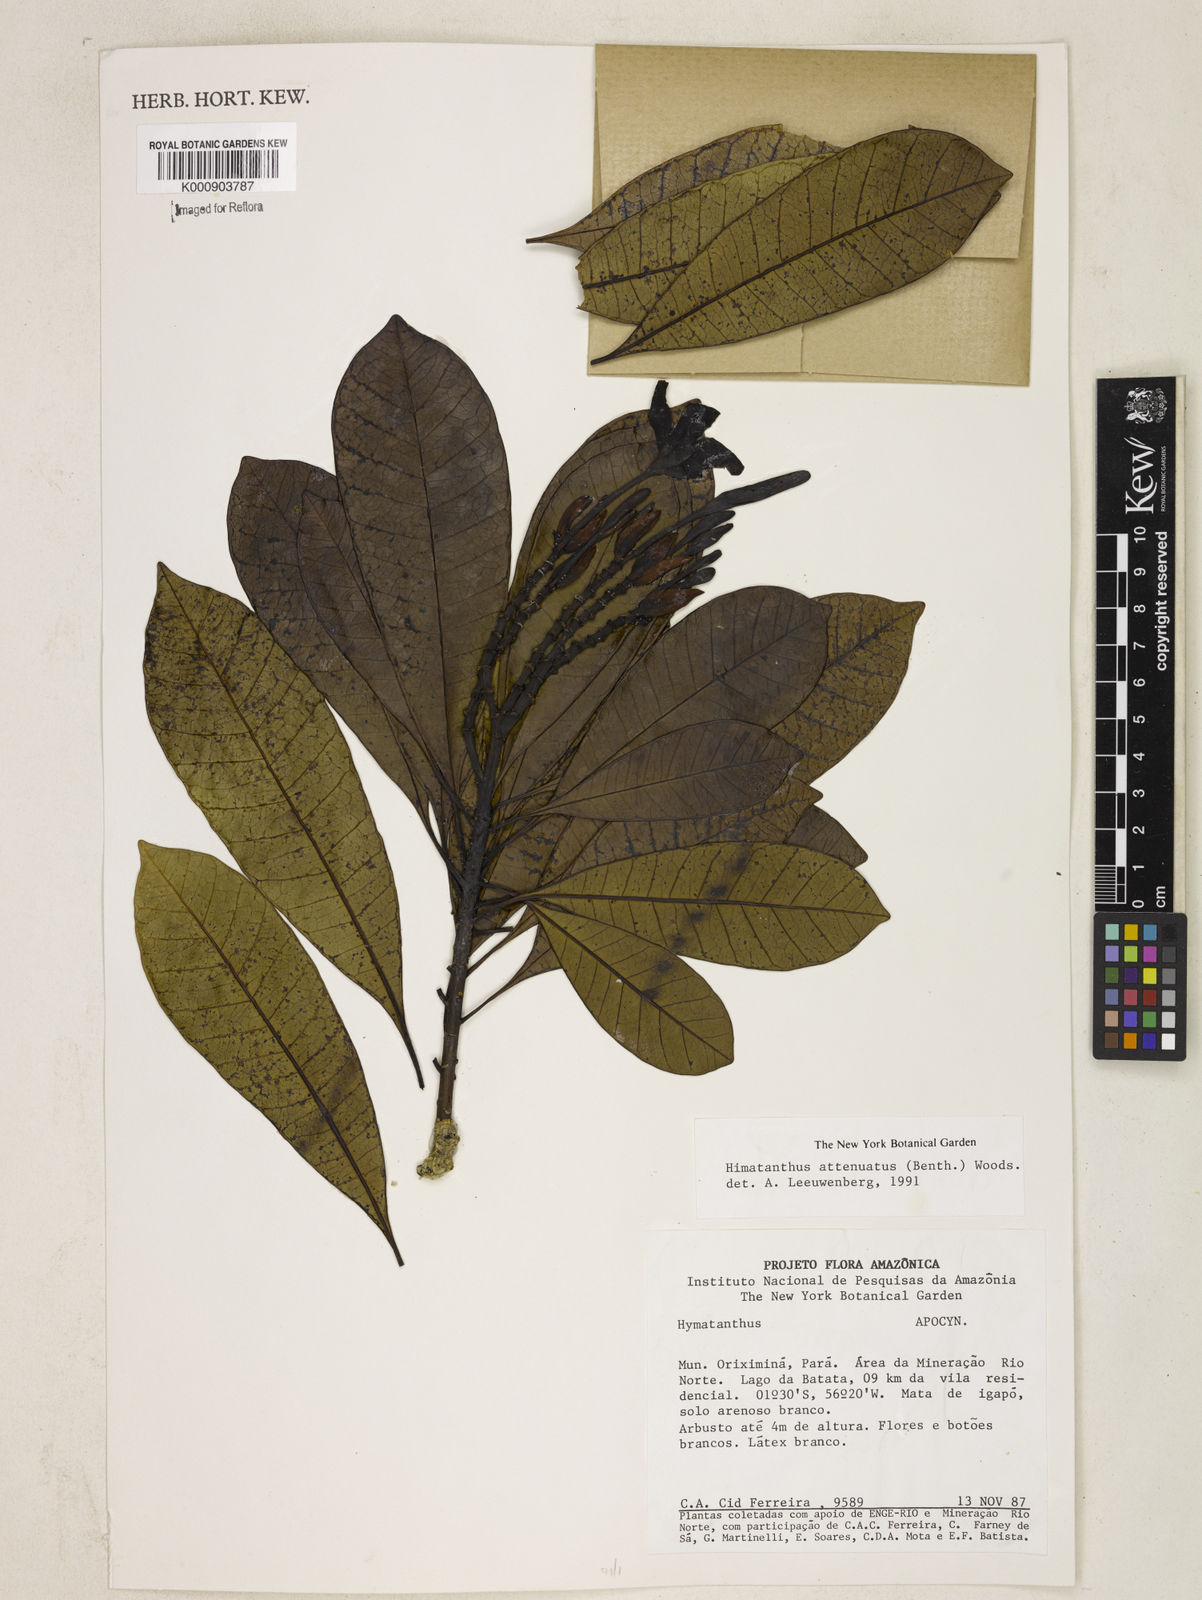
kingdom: Plantae
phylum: Tracheophyta
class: Magnoliopsida
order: Gentianales
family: Apocynaceae
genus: Himatanthus
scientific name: Himatanthus attenuatus
